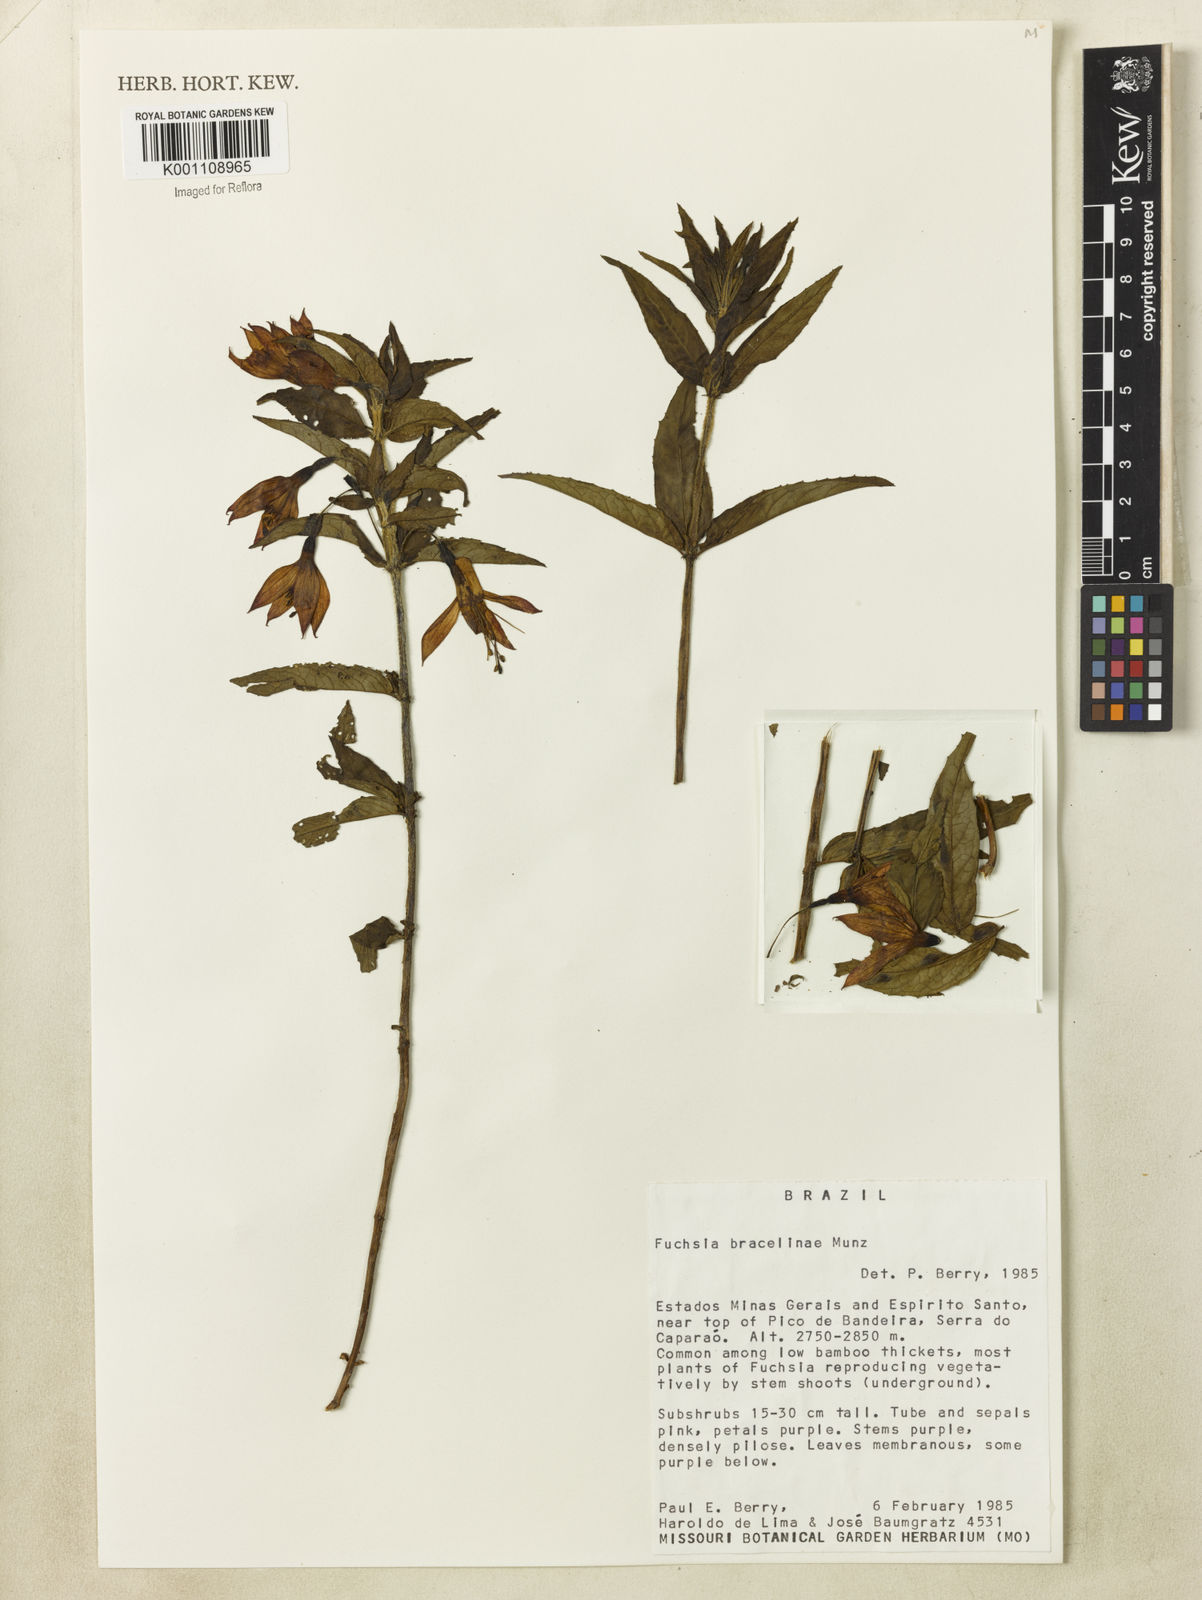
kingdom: Plantae
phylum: Tracheophyta
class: Magnoliopsida
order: Myrtales
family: Onagraceae
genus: Fuchsia
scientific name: Fuchsia bracelinae
